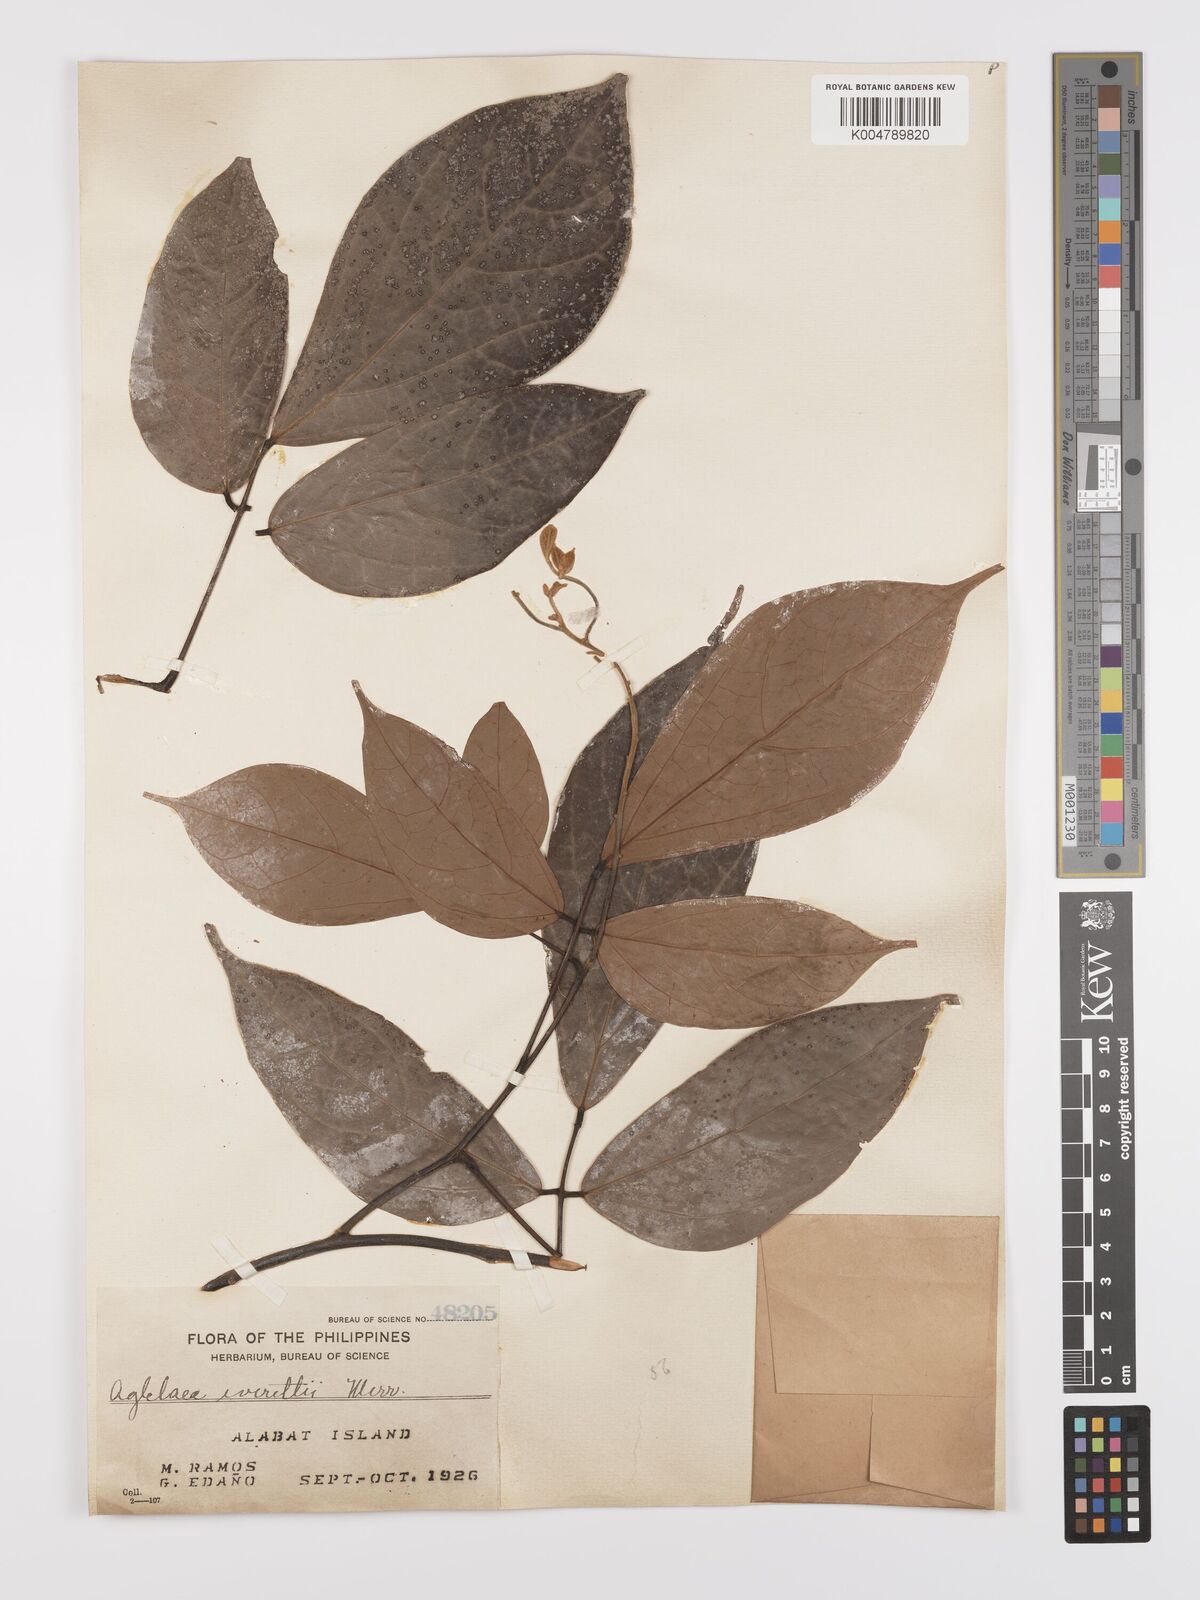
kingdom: Plantae
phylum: Tracheophyta
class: Magnoliopsida
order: Oxalidales
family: Connaraceae
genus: Agelaea
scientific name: Agelaea borneensis
